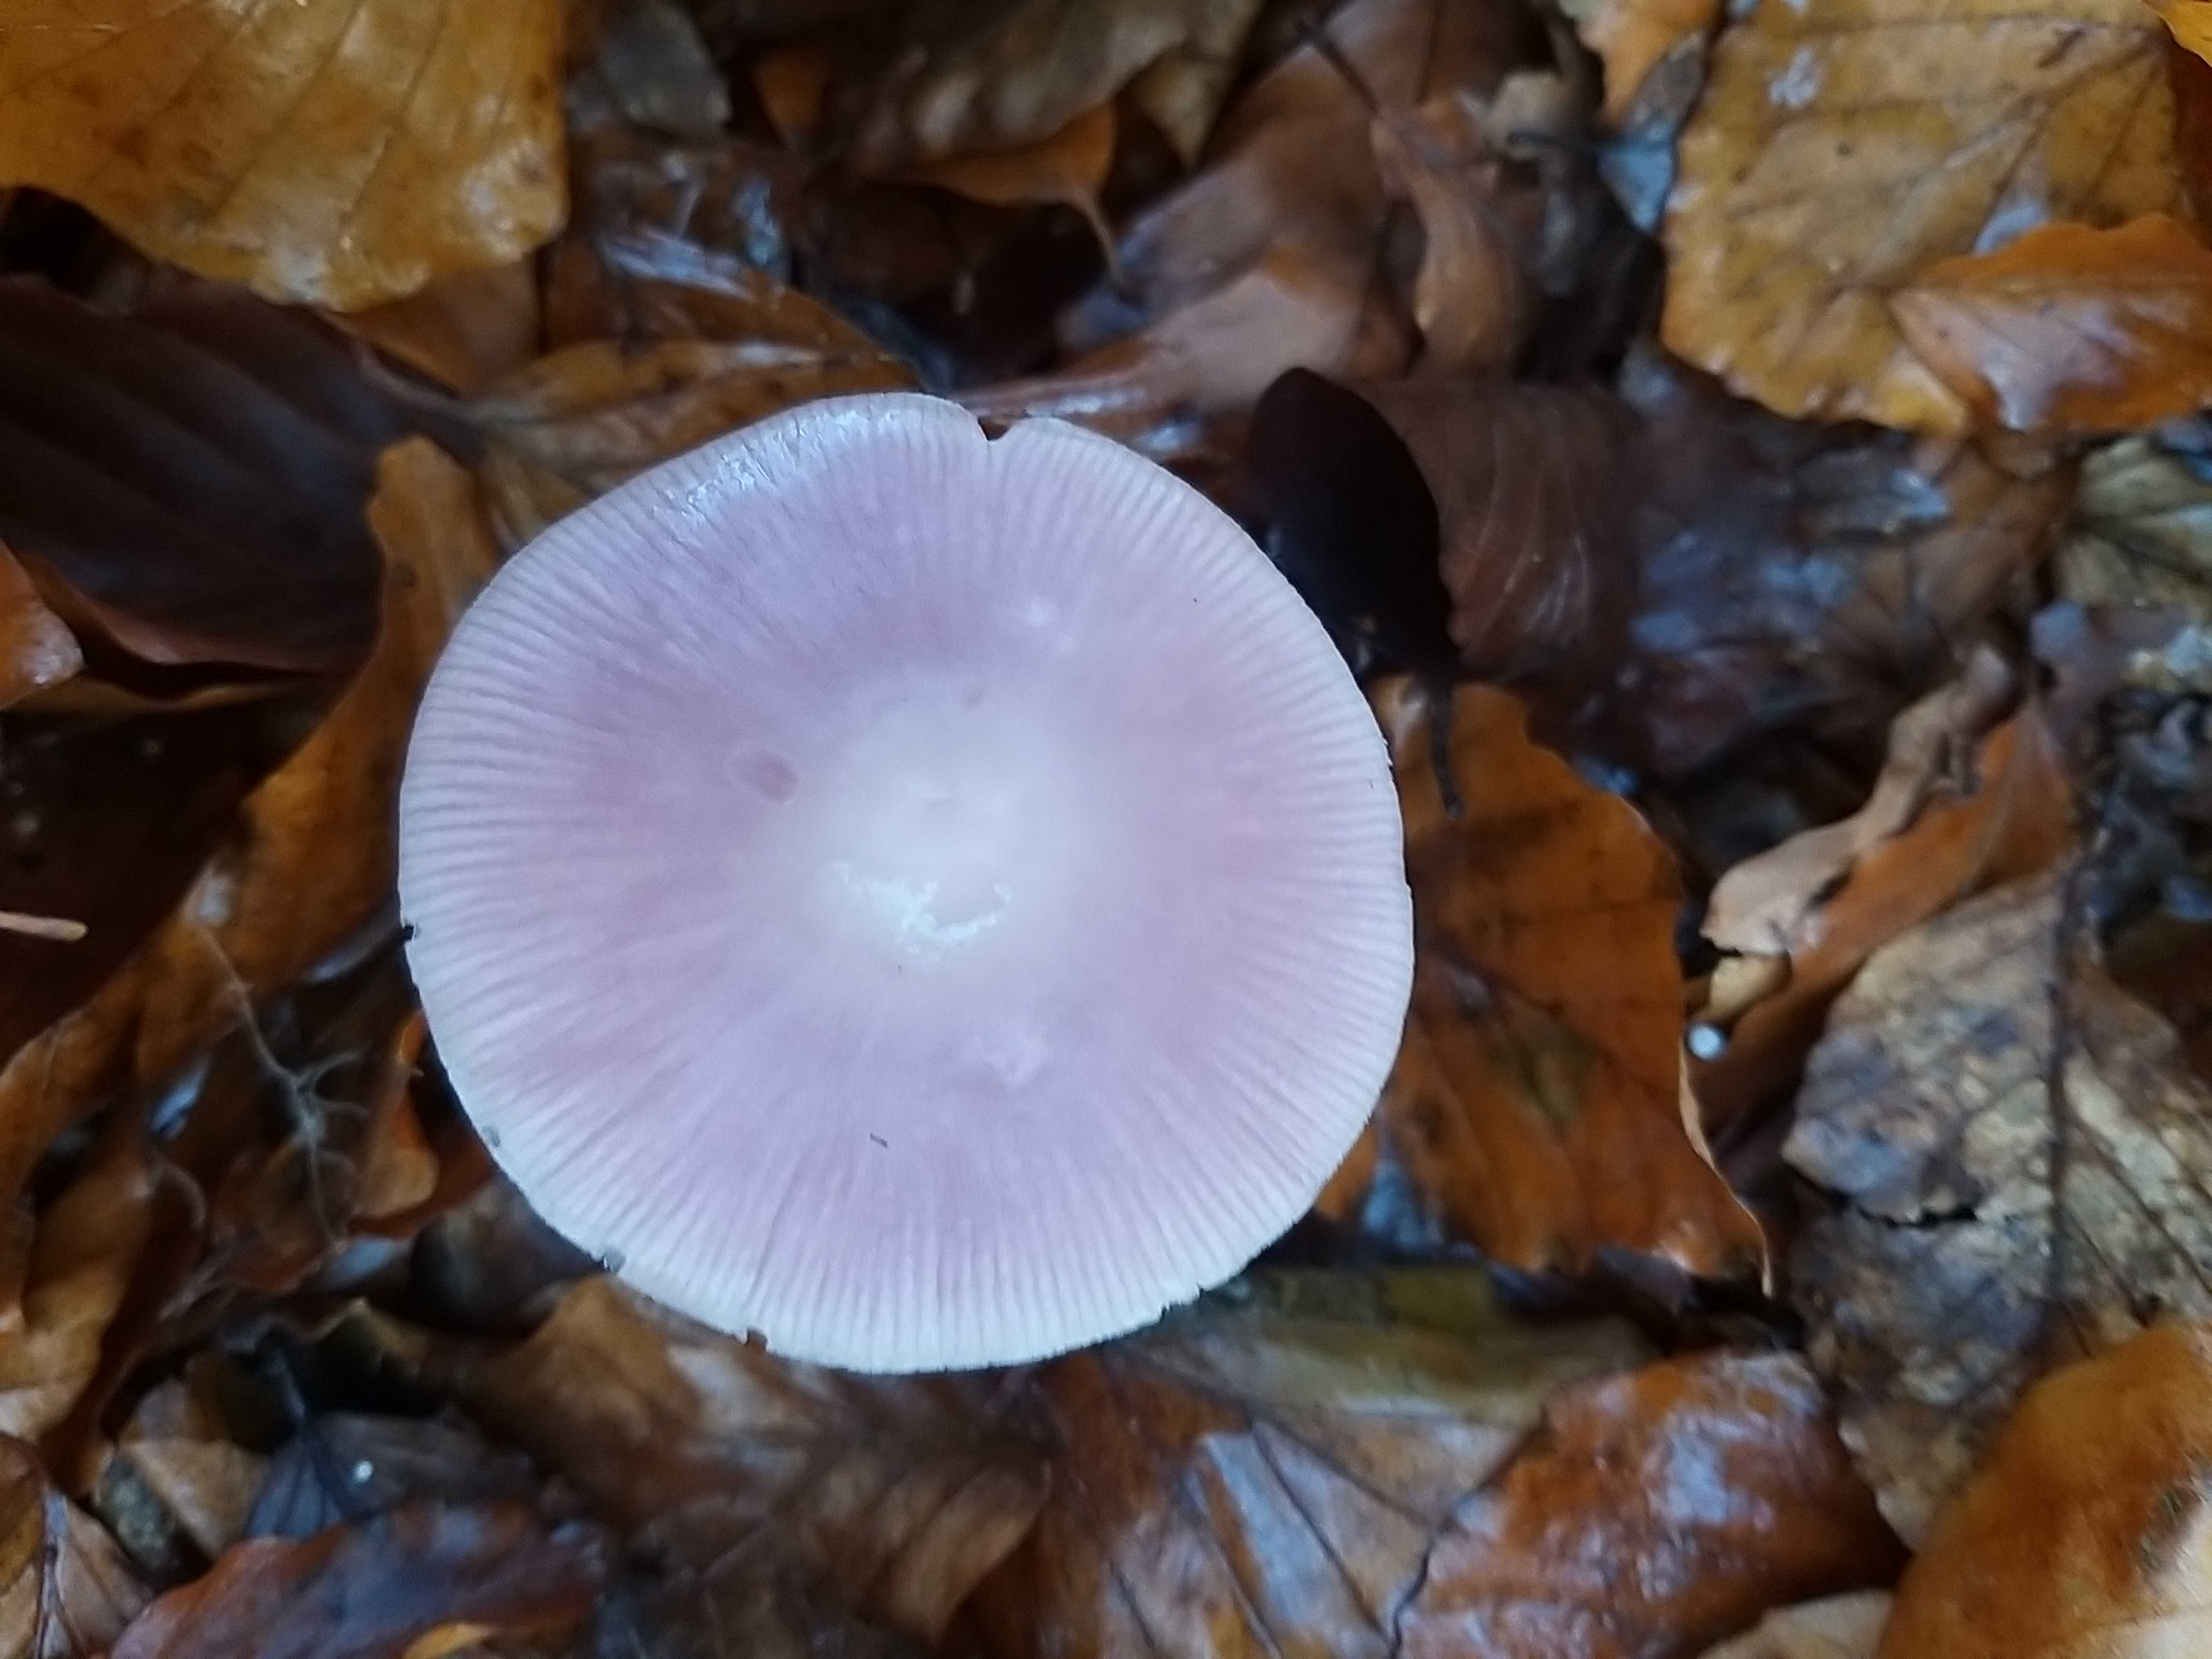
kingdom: Fungi
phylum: Basidiomycota
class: Agaricomycetes
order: Agaricales
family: Mycenaceae
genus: Mycena
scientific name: Mycena rosea
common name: rosa huesvamp
